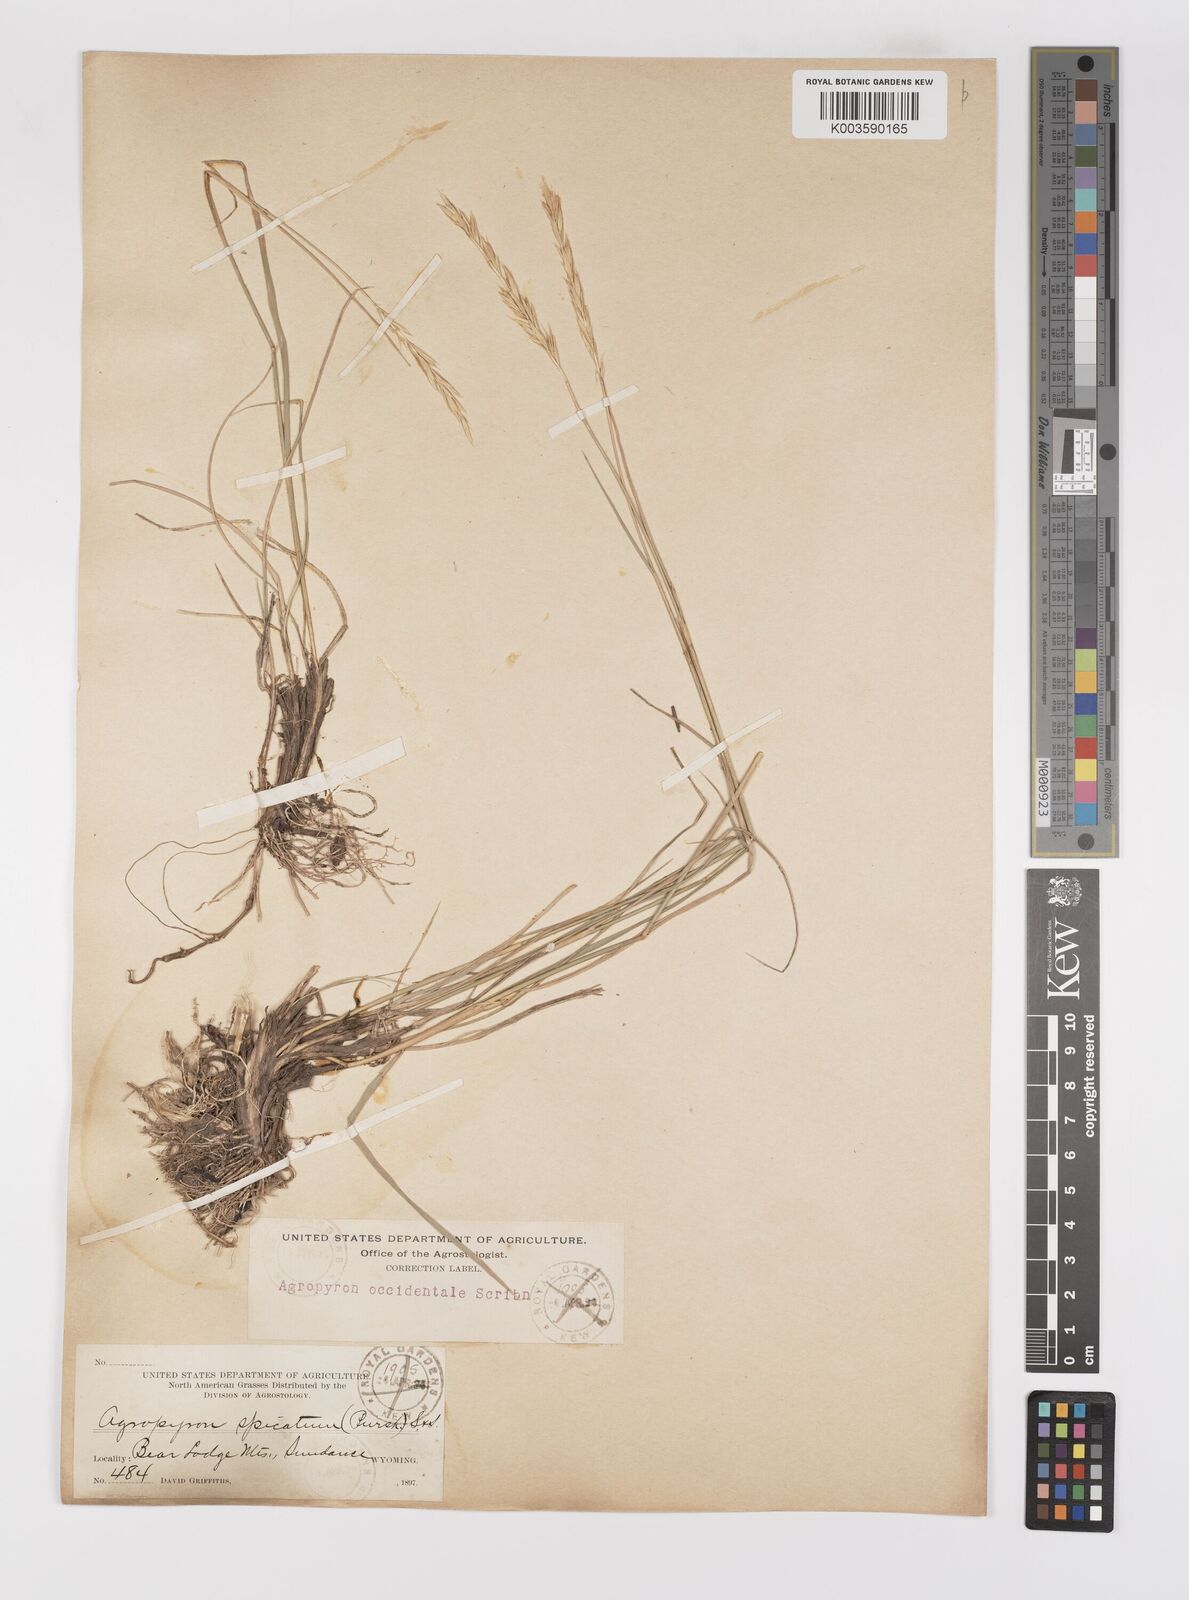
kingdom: Plantae
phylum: Tracheophyta
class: Liliopsida
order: Poales
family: Poaceae
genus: Elymus
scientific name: Elymus smithii
